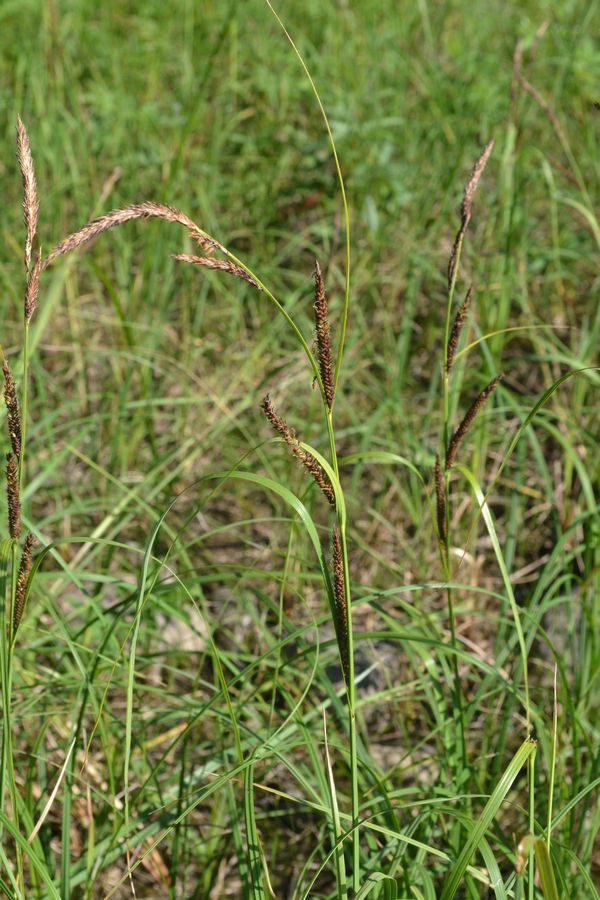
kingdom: Plantae
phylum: Tracheophyta
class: Liliopsida
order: Poales
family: Cyperaceae
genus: Carex
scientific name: Carex acuta
